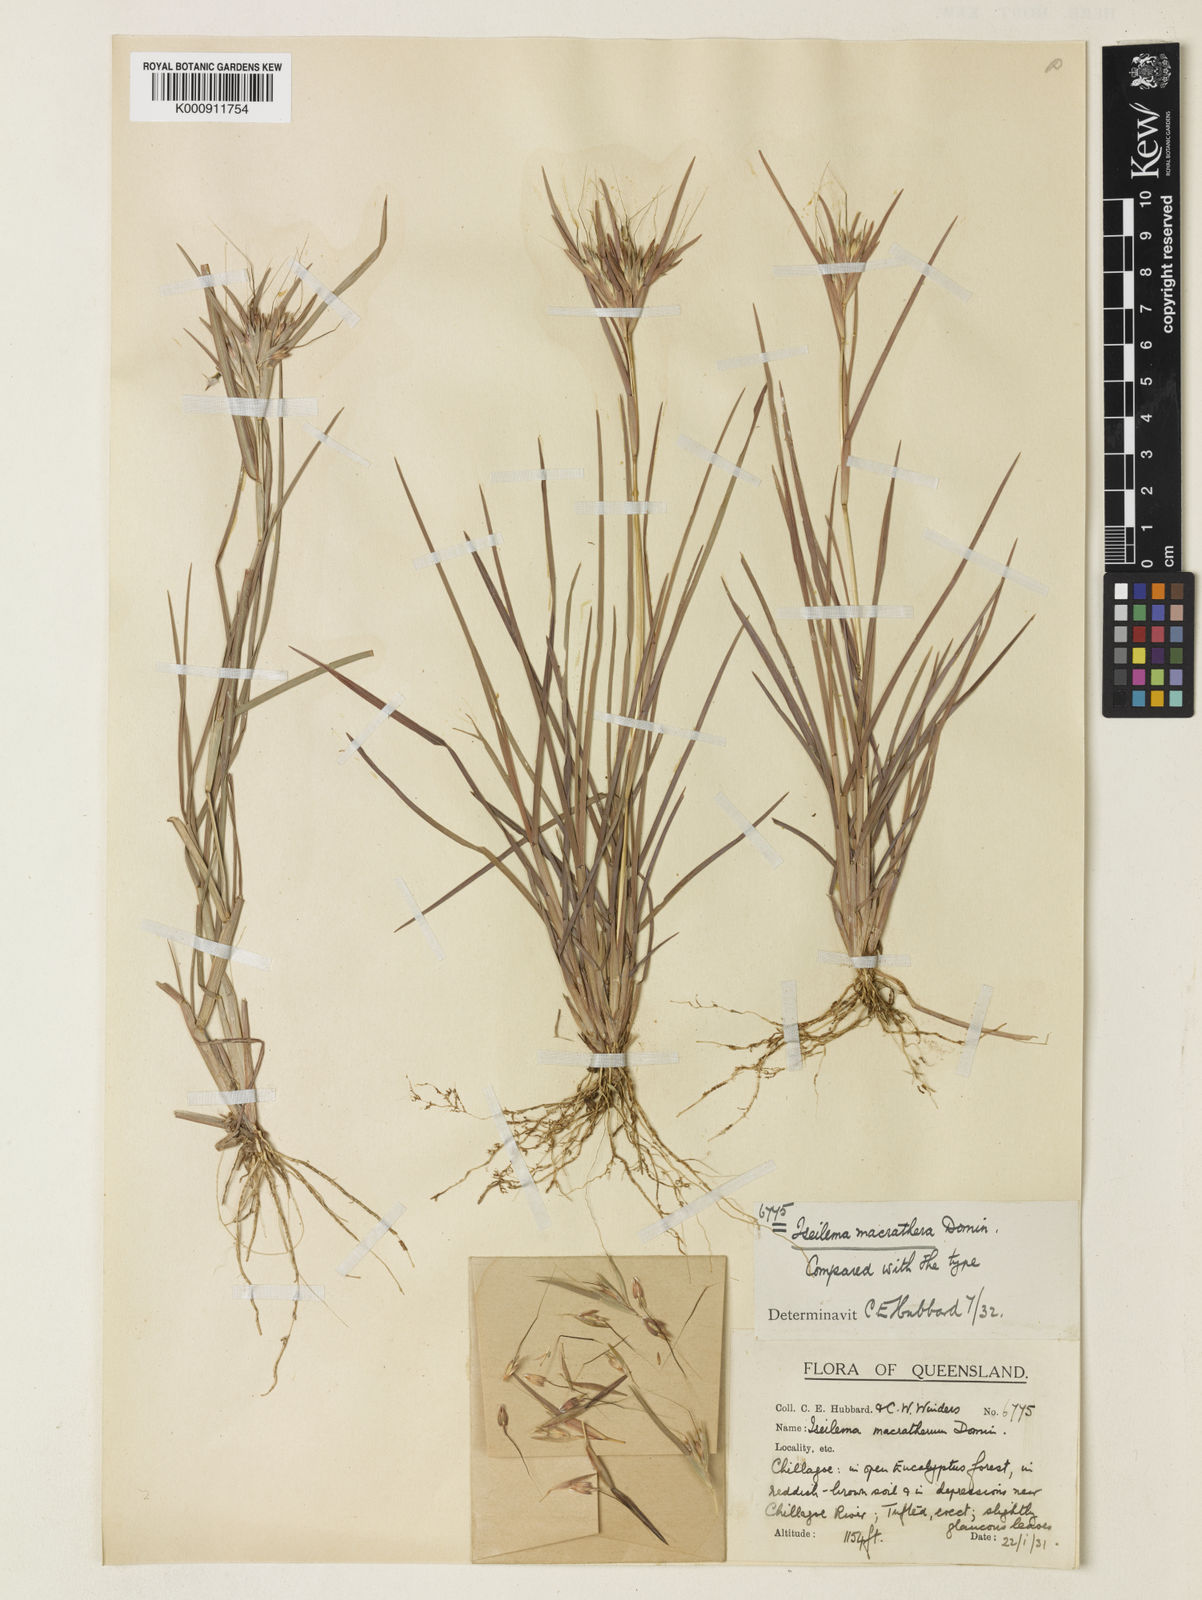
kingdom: Plantae
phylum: Tracheophyta
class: Liliopsida
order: Poales
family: Poaceae
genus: Iseilema
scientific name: Iseilema macratherum
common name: Bull flinders grass
